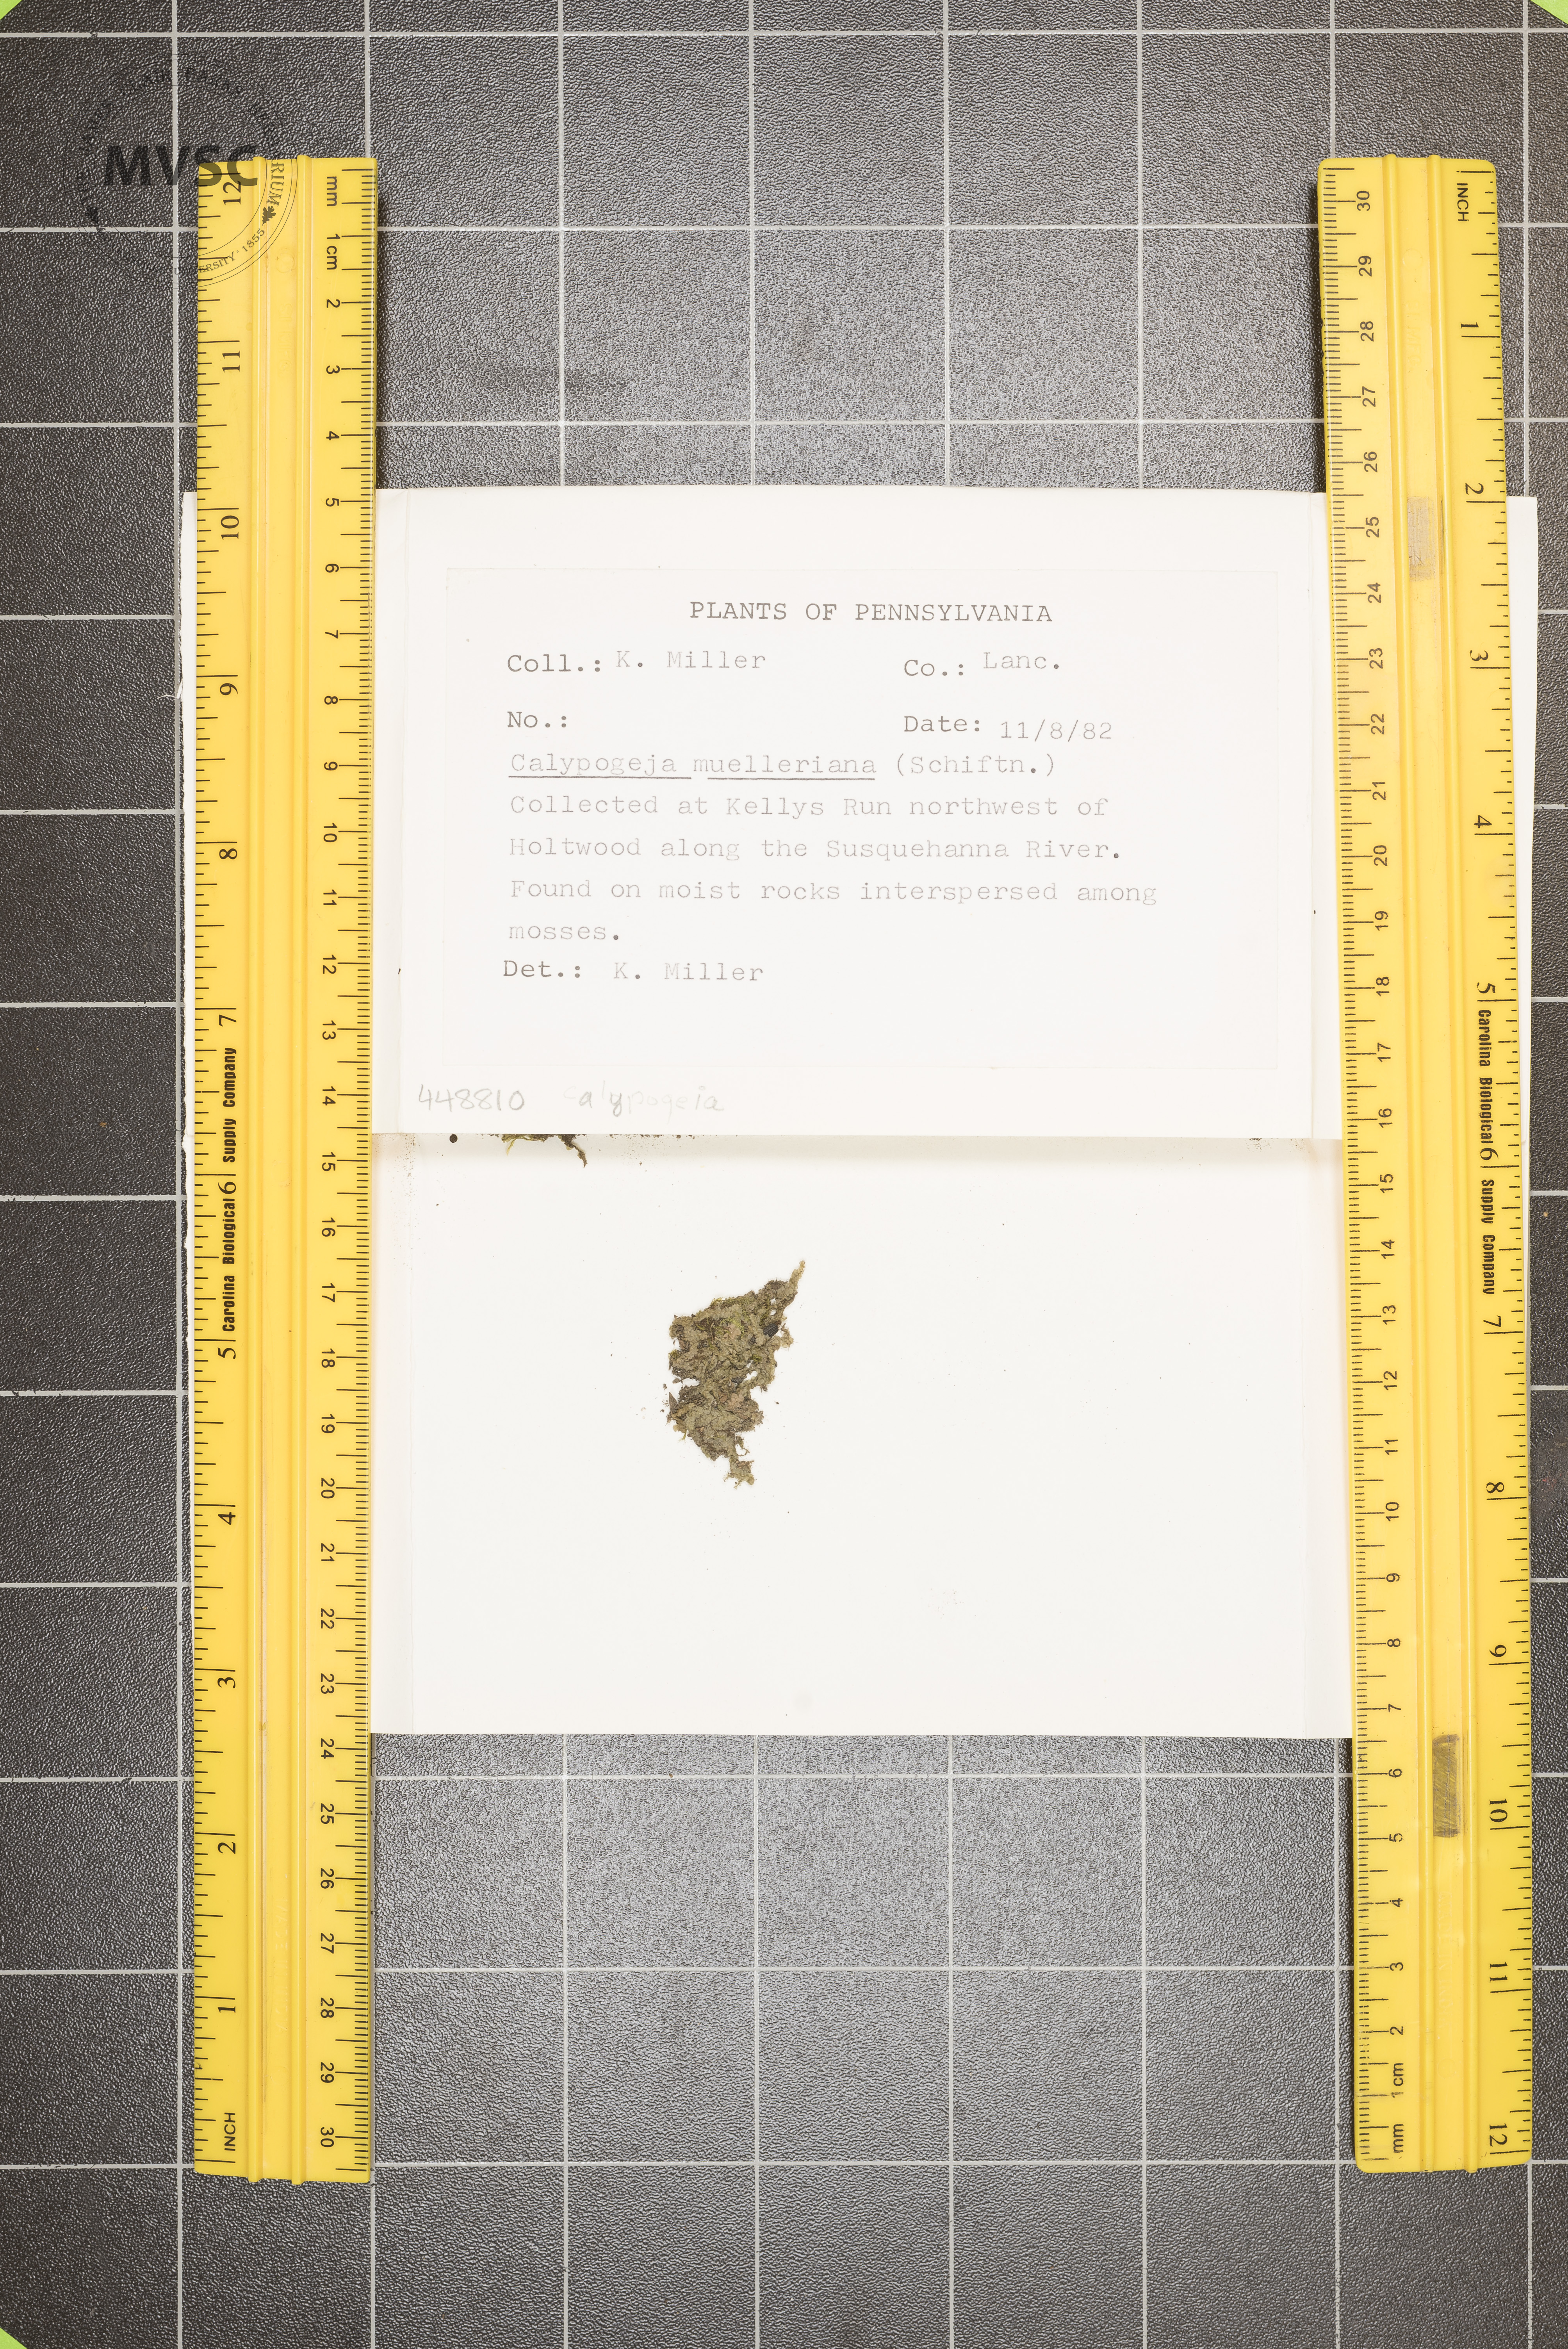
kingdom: Plantae
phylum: Marchantiophyta
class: Jungermanniopsida
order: Jungermanniales
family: Calypogeiaceae
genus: Calypogeia
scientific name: Calypogeia muelleriana
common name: Mueller s pouchwort
